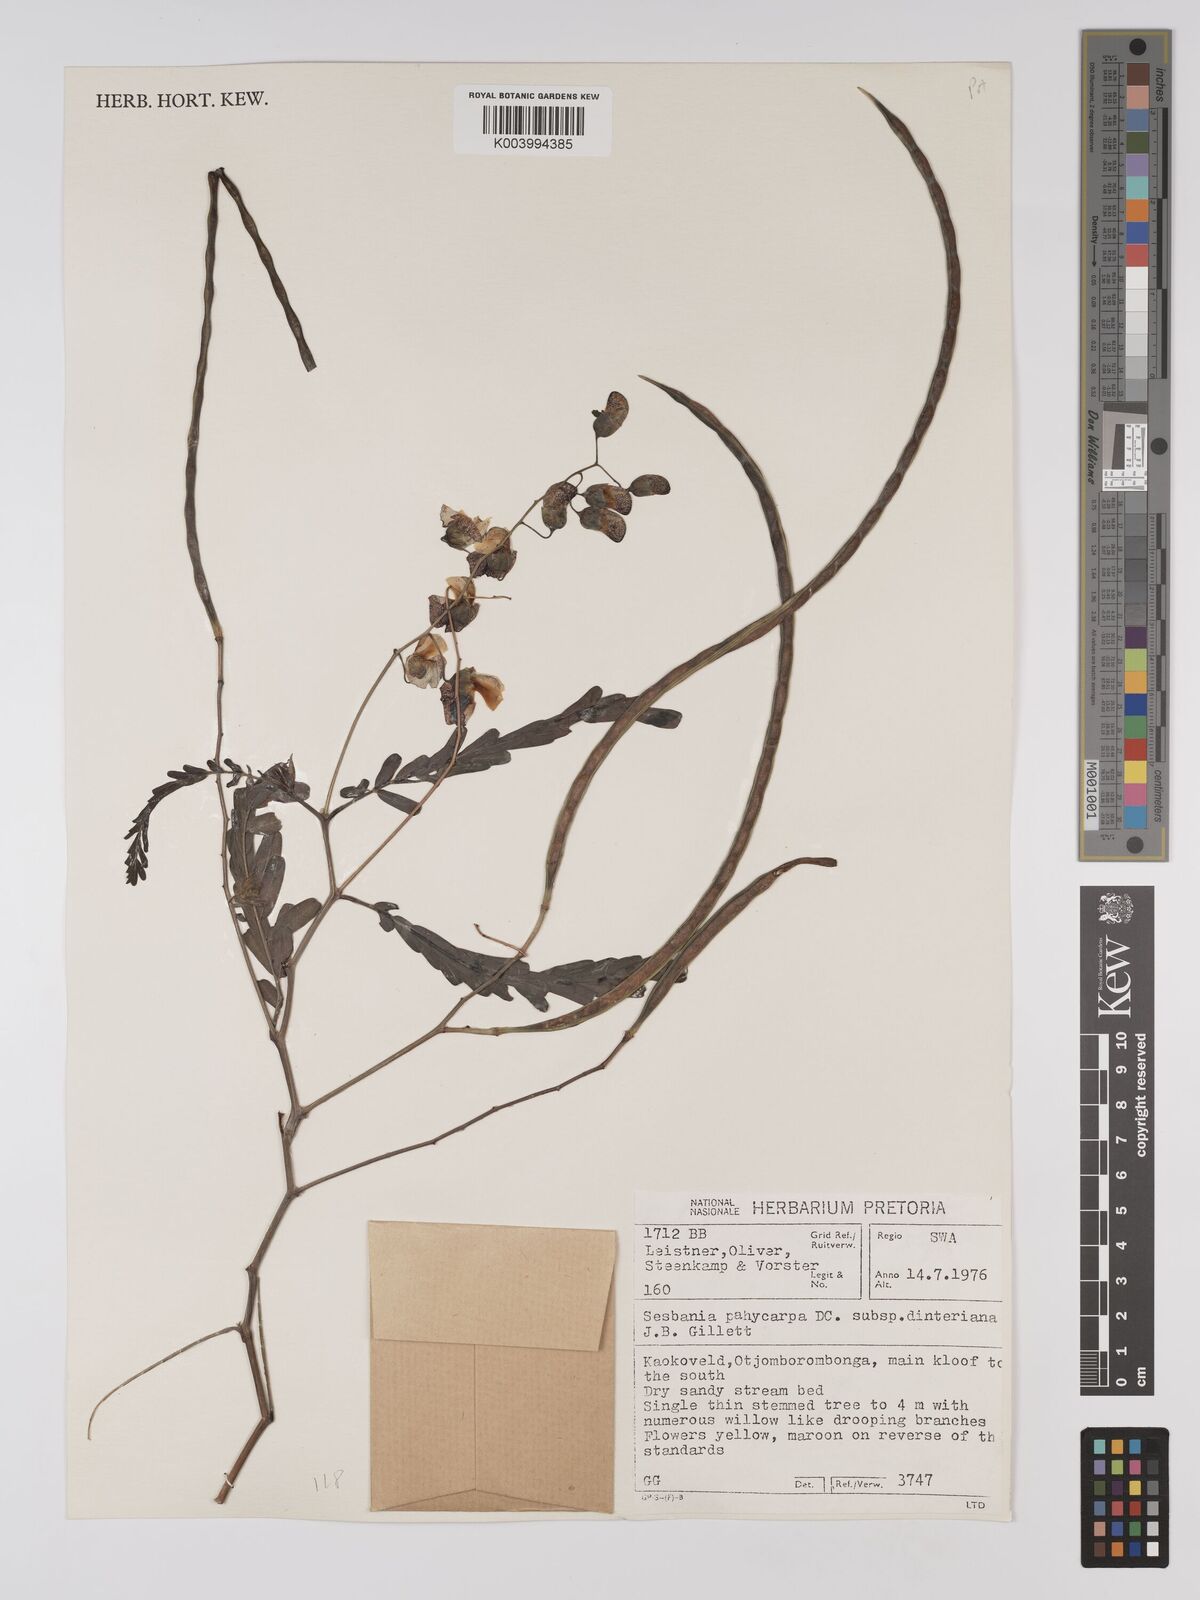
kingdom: Plantae
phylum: Tracheophyta
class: Magnoliopsida
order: Fabales
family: Fabaceae
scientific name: Fabaceae
